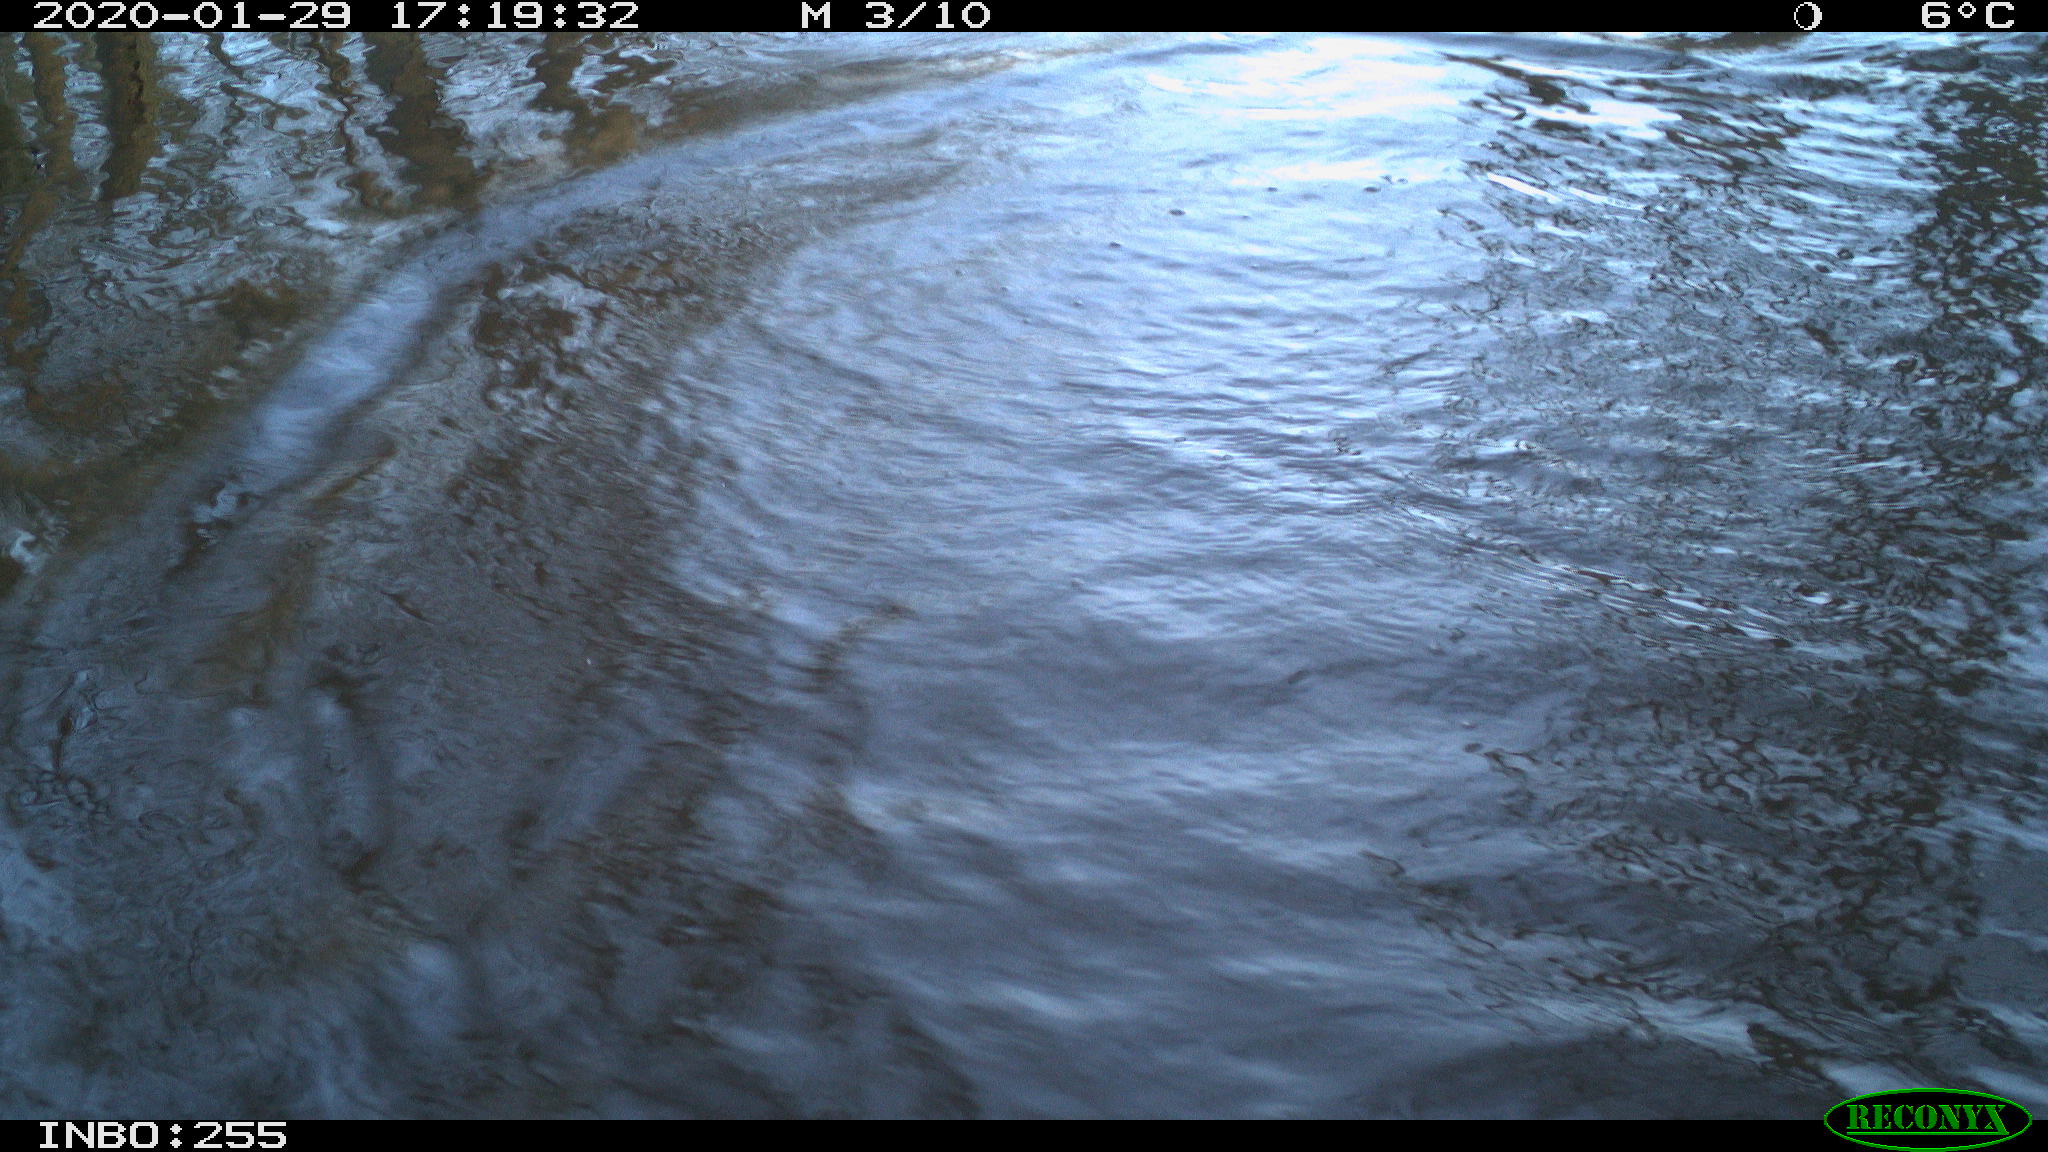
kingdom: Animalia
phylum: Chordata
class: Aves
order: Gruiformes
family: Rallidae
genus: Gallinula
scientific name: Gallinula chloropus
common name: Common moorhen
